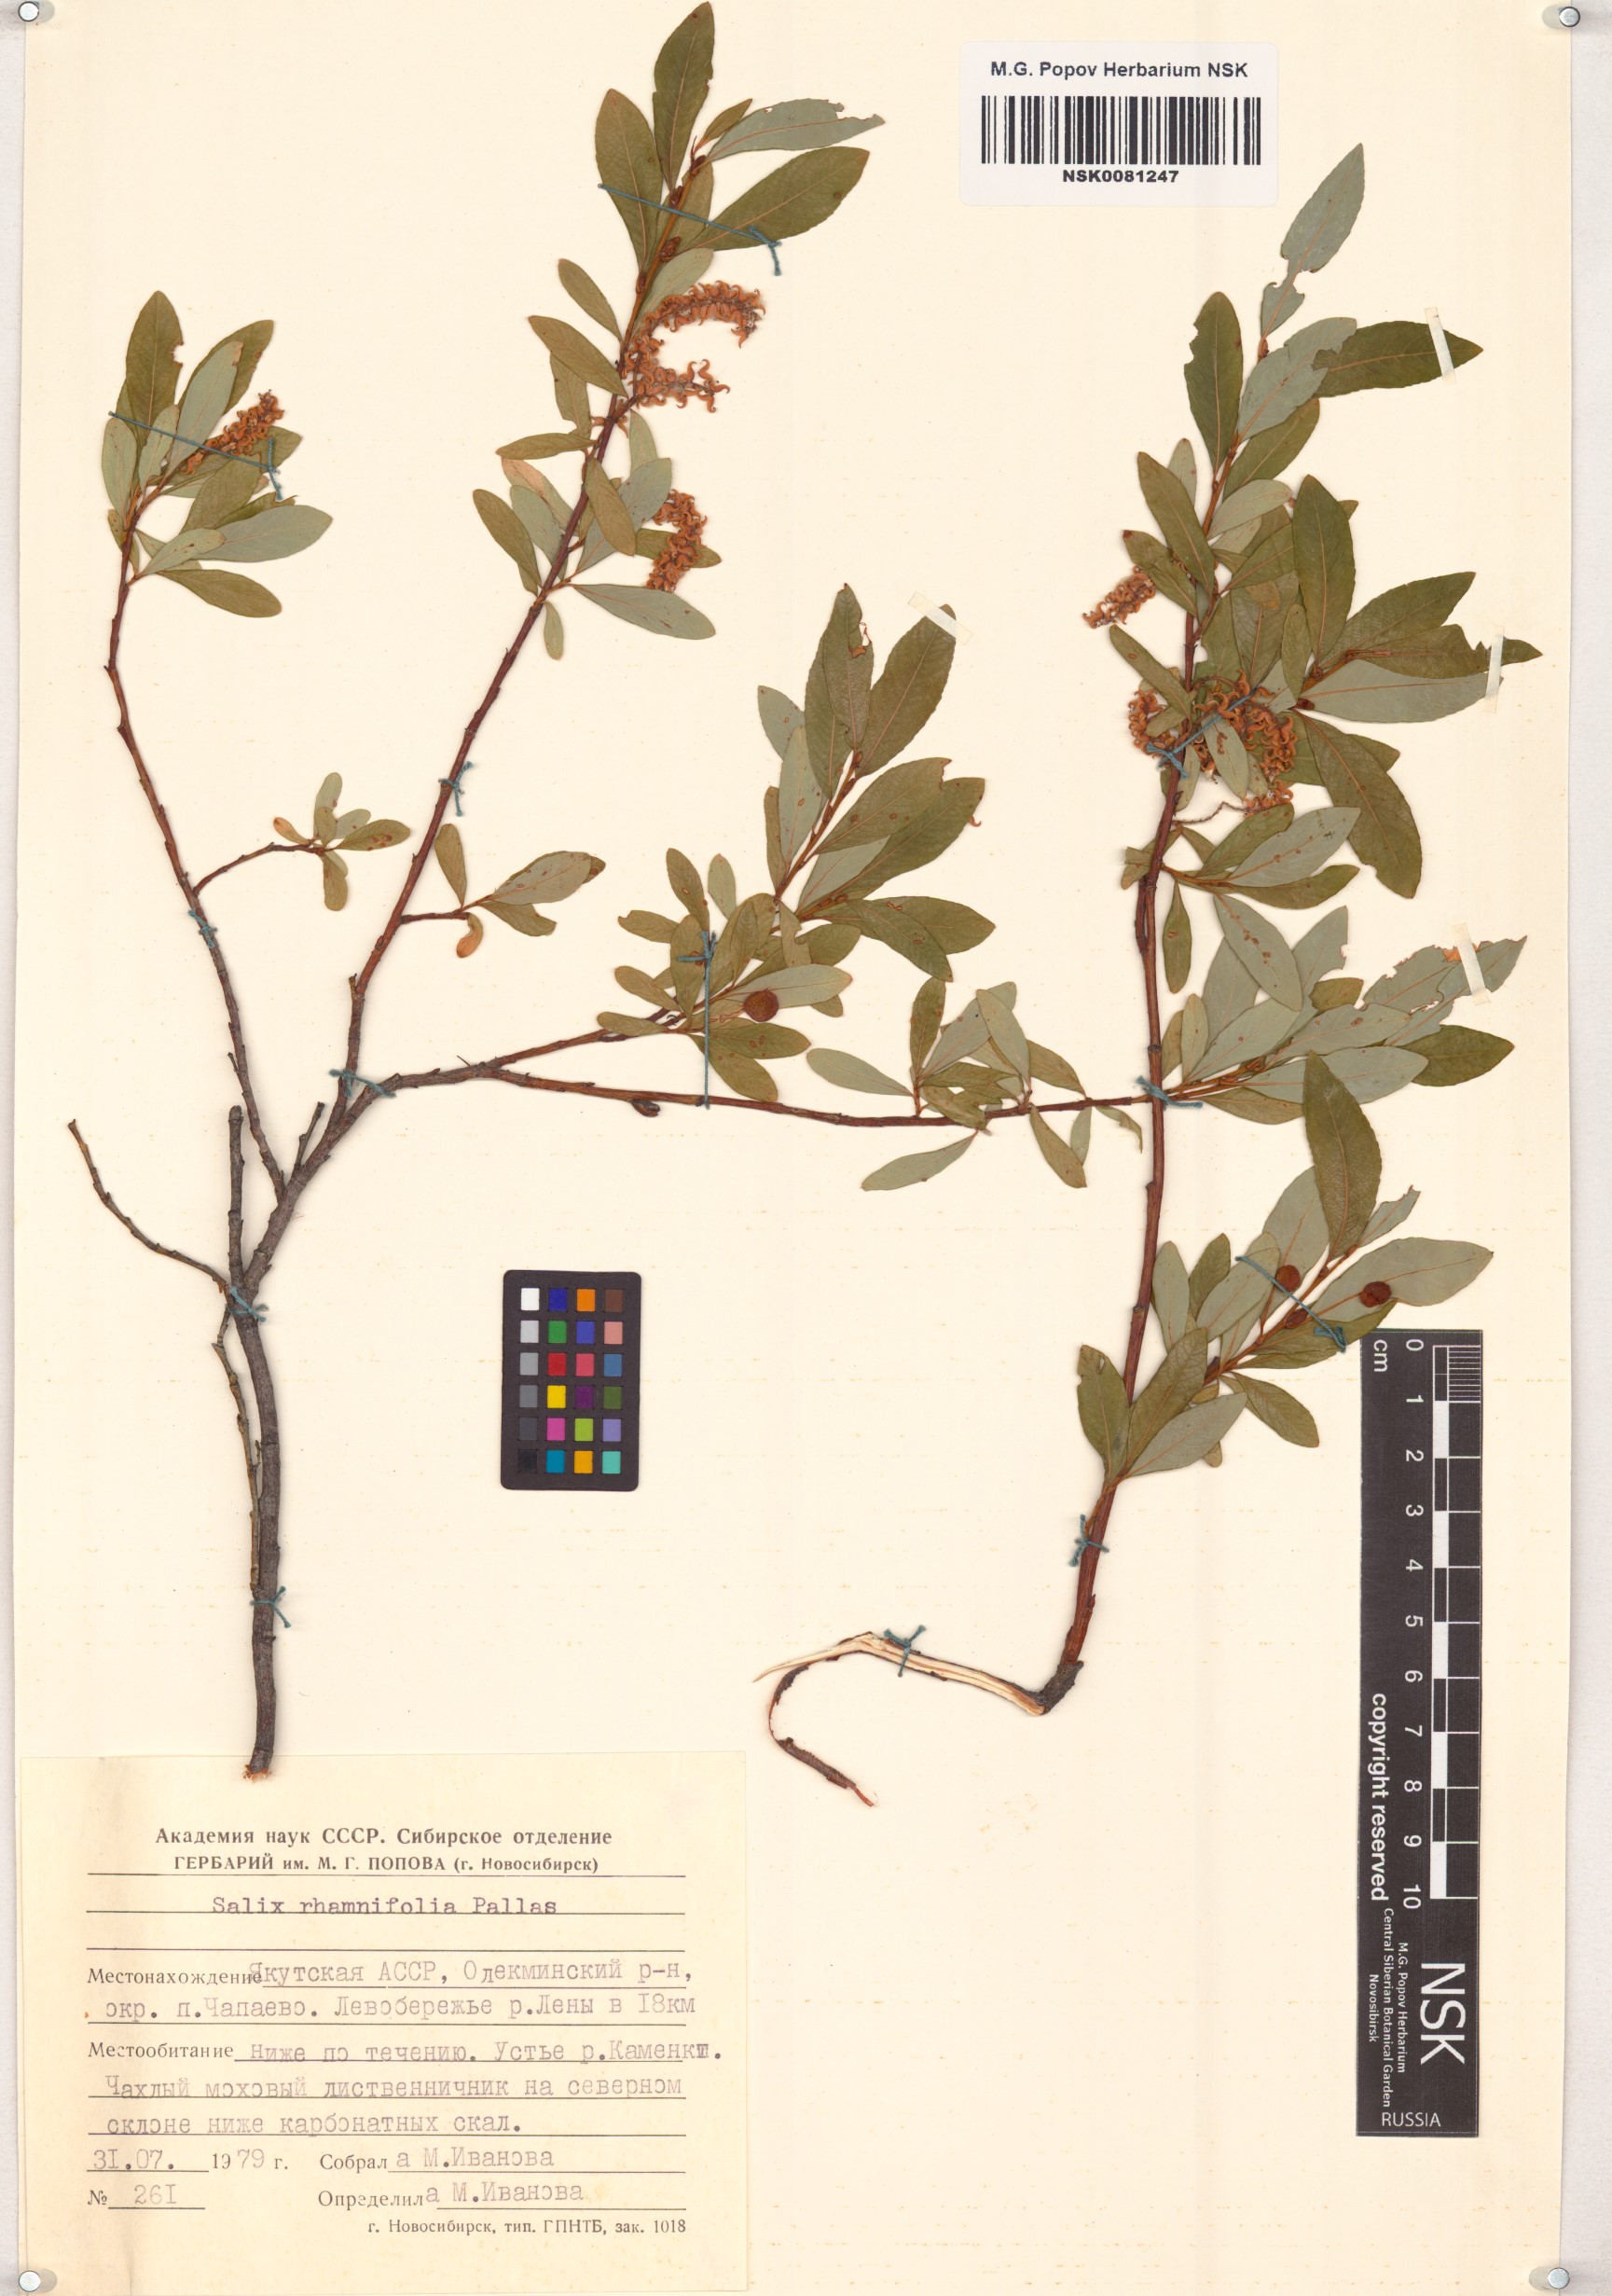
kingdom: Plantae
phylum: Tracheophyta
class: Magnoliopsida
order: Malpighiales
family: Salicaceae
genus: Salix
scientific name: Salix rhamnifolia
